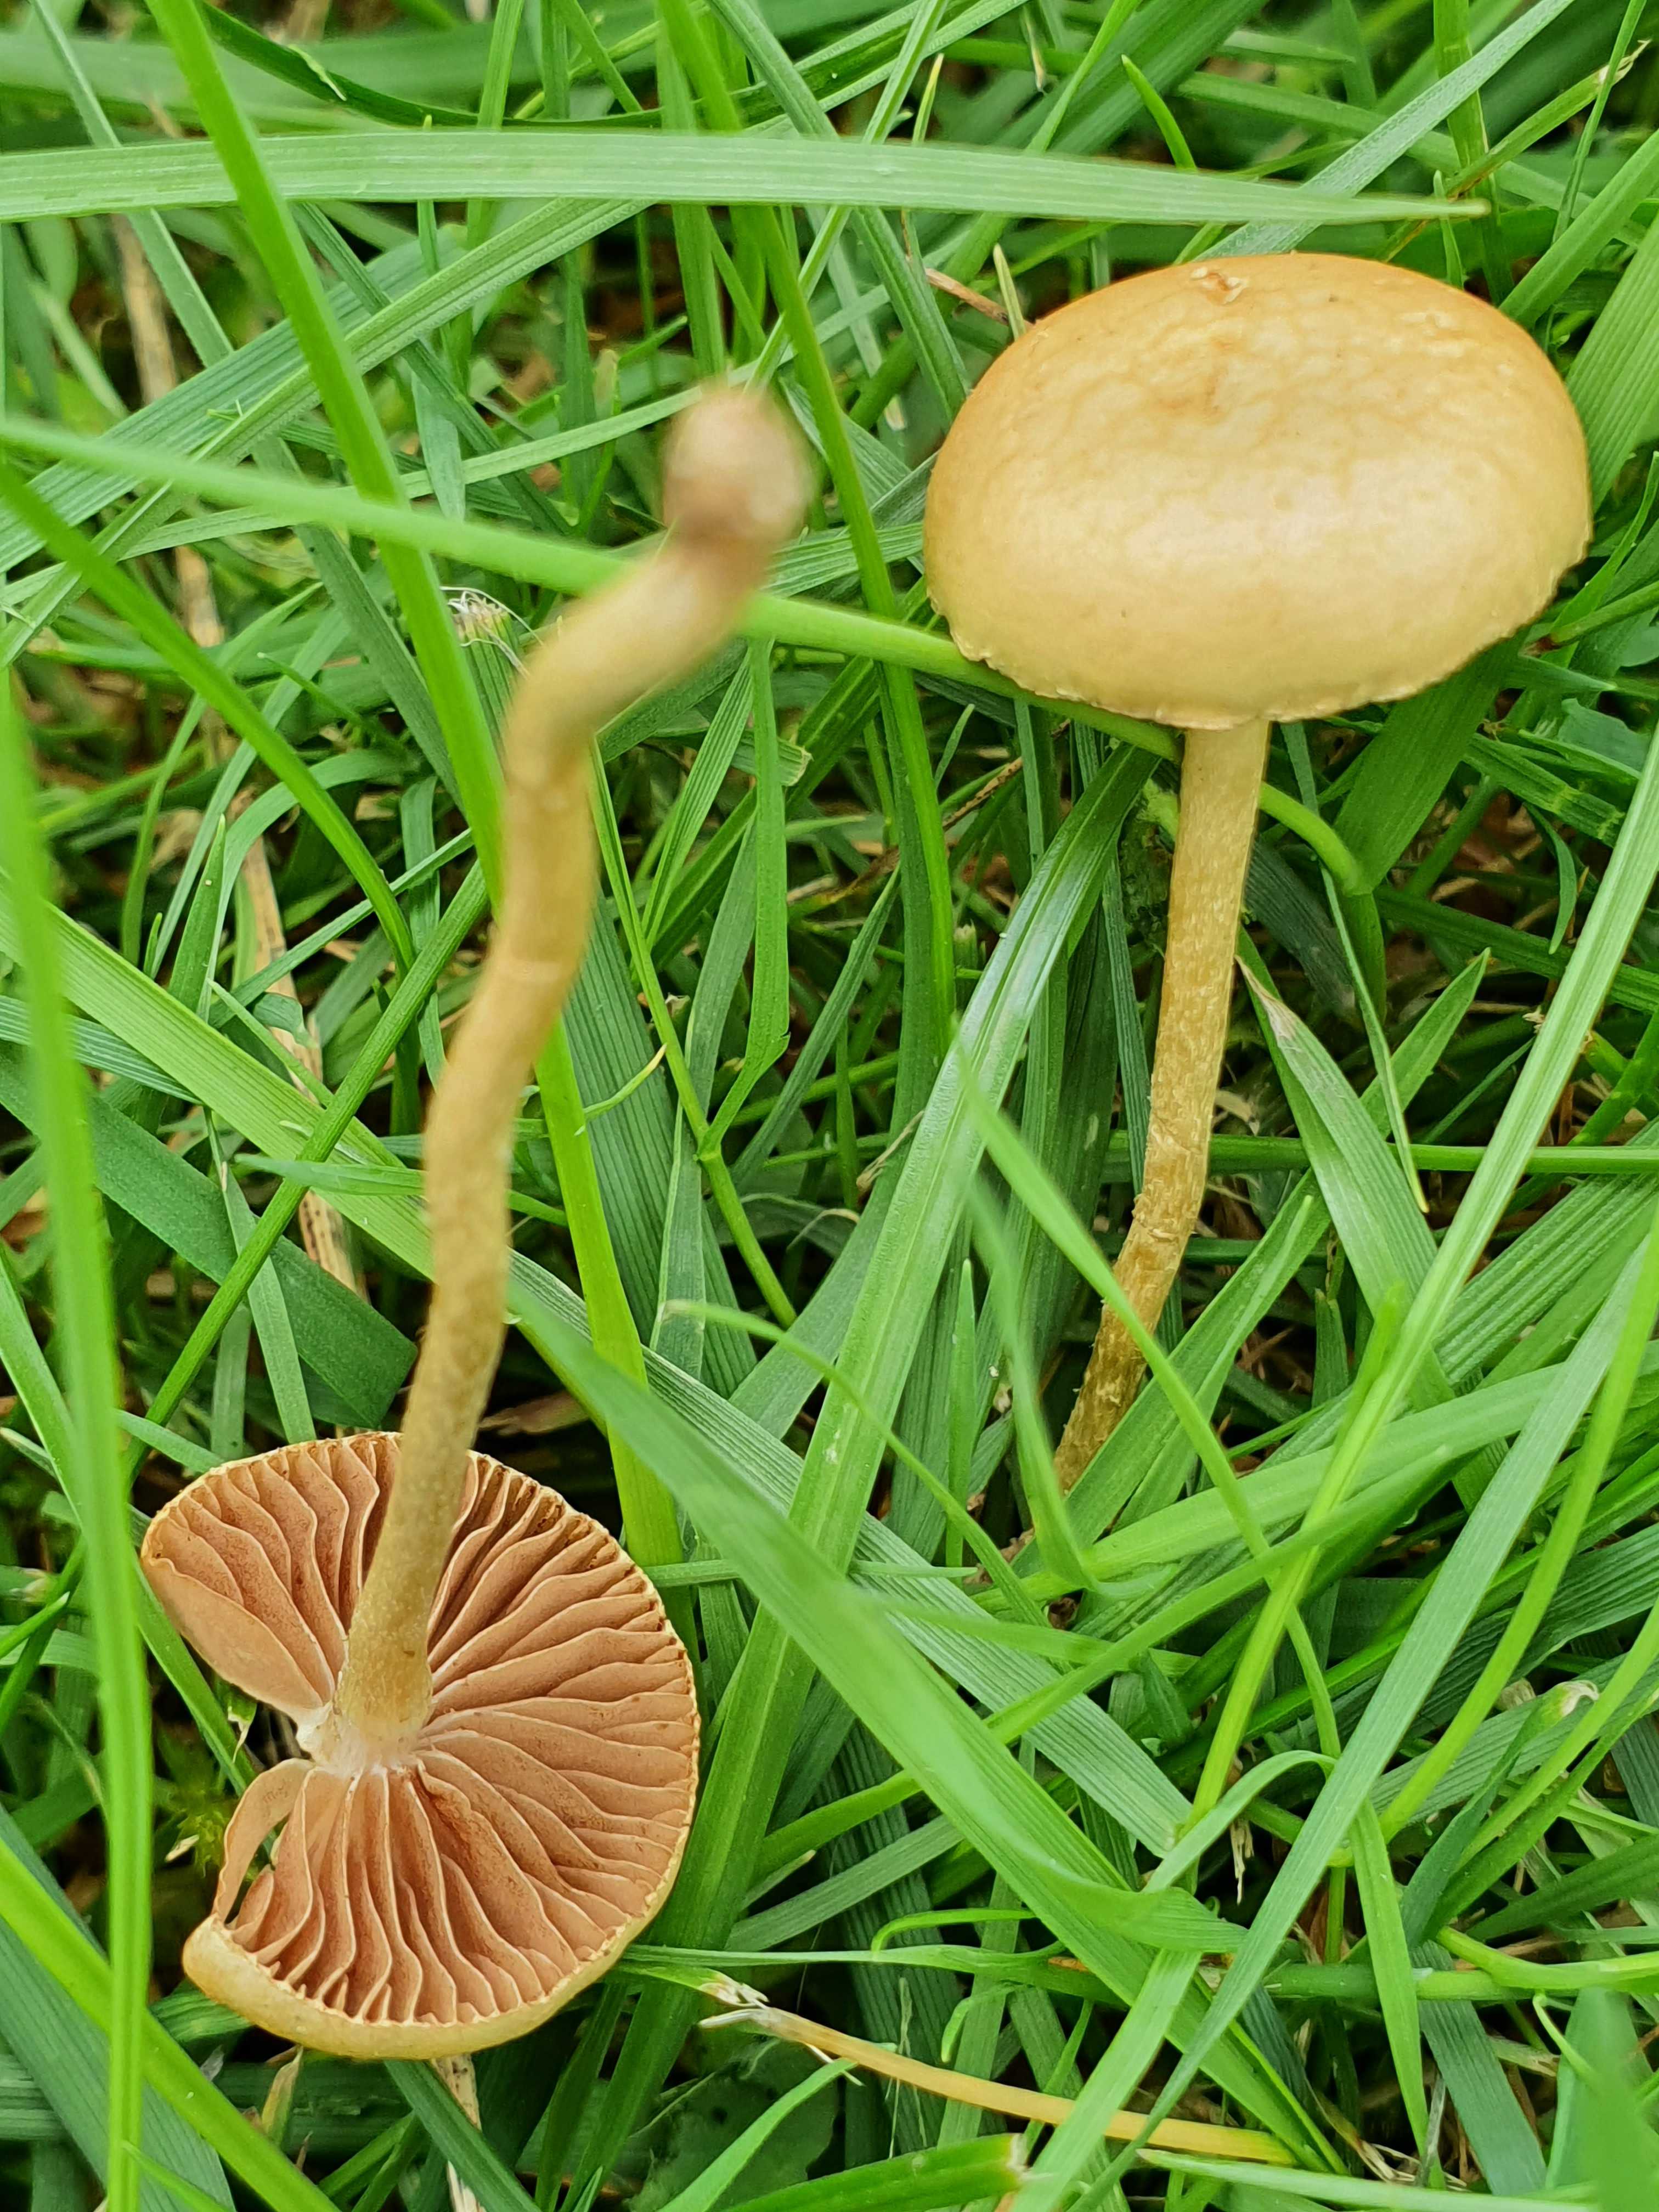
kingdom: Fungi
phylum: Basidiomycota
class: Agaricomycetes
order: Agaricales
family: Strophariaceae
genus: Agrocybe
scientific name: Agrocybe pediades
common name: almindelig agerhat
